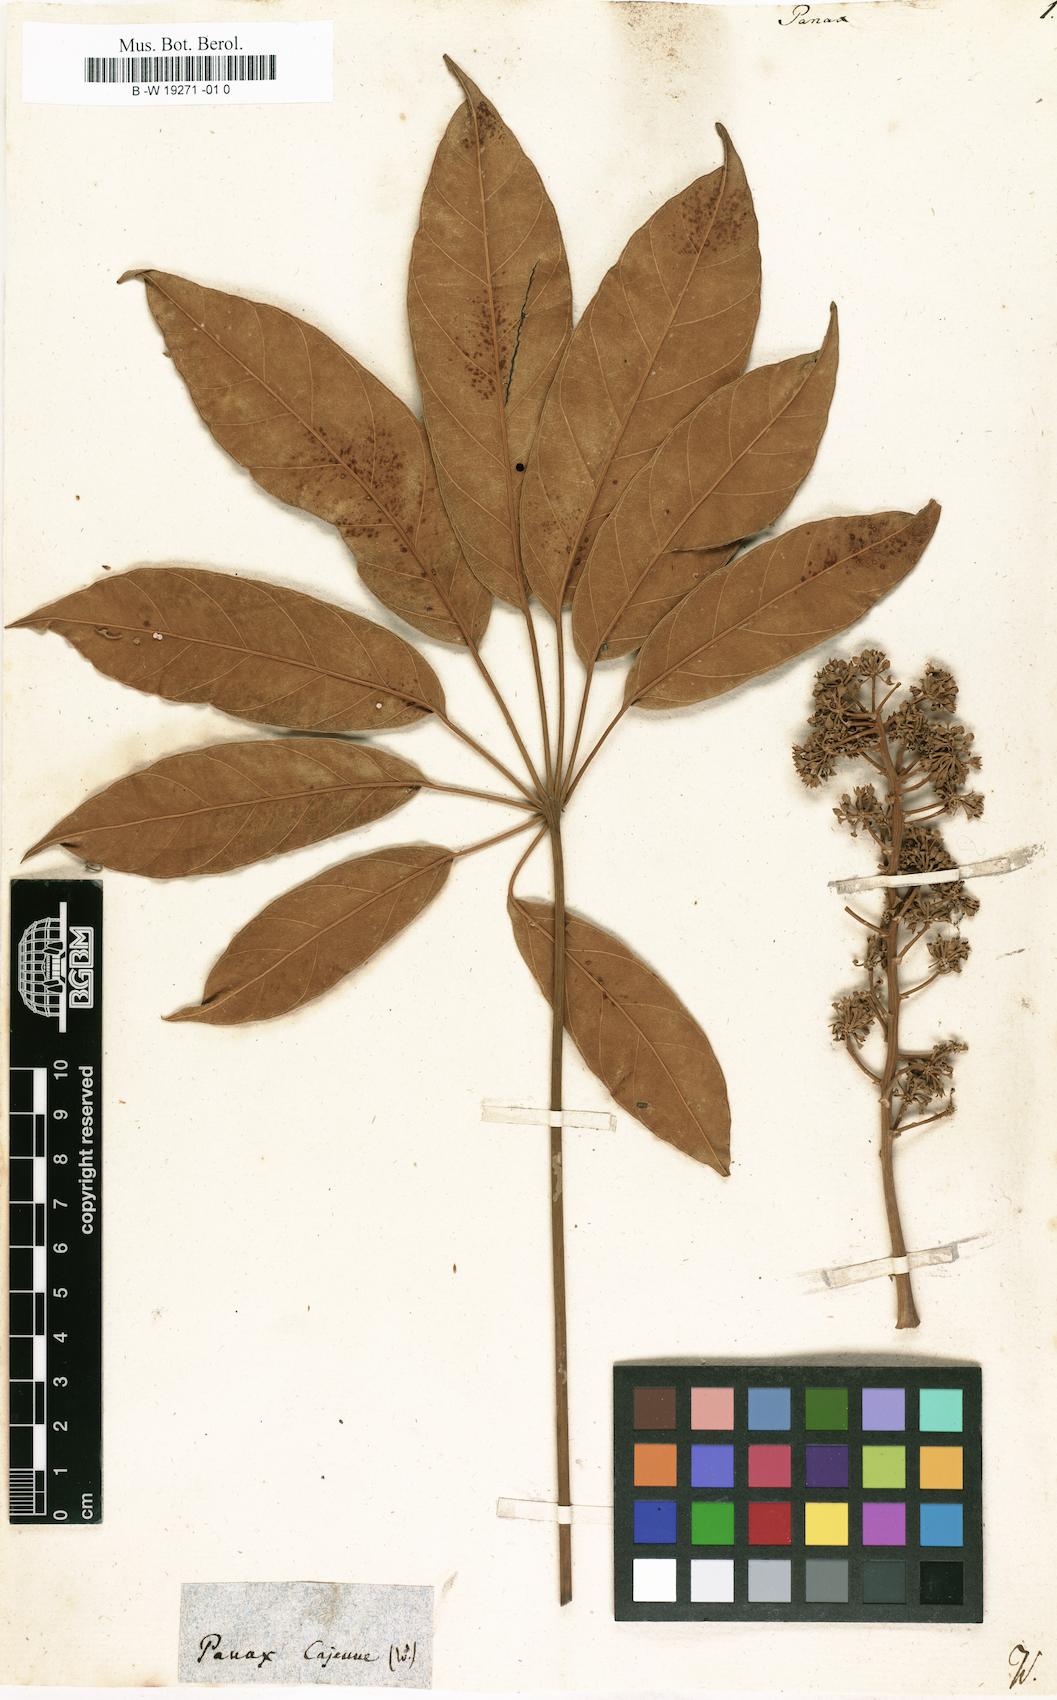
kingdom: Plantae
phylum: Tracheophyta
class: Magnoliopsida
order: Apiales
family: Araliaceae
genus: Panax
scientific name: Panax
